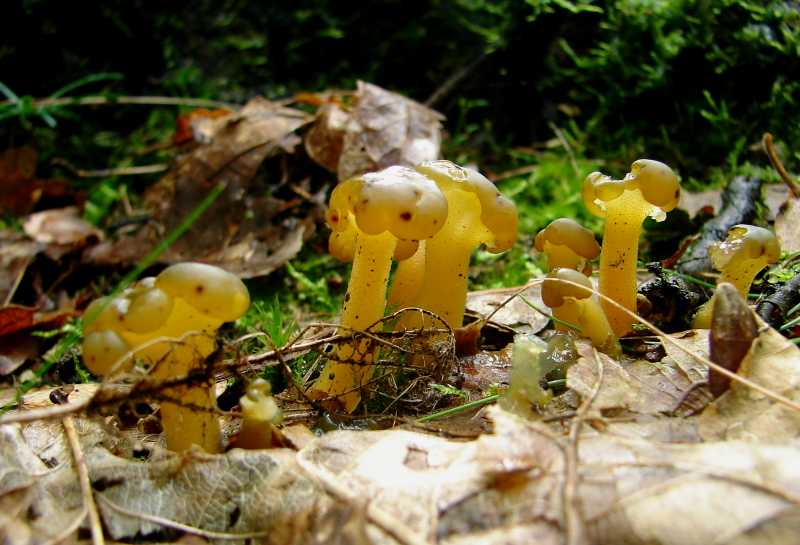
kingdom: Fungi
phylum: Ascomycota
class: Leotiomycetes
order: Leotiales
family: Leotiaceae
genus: Leotia
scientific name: Leotia lubrica
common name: ravsvamp
